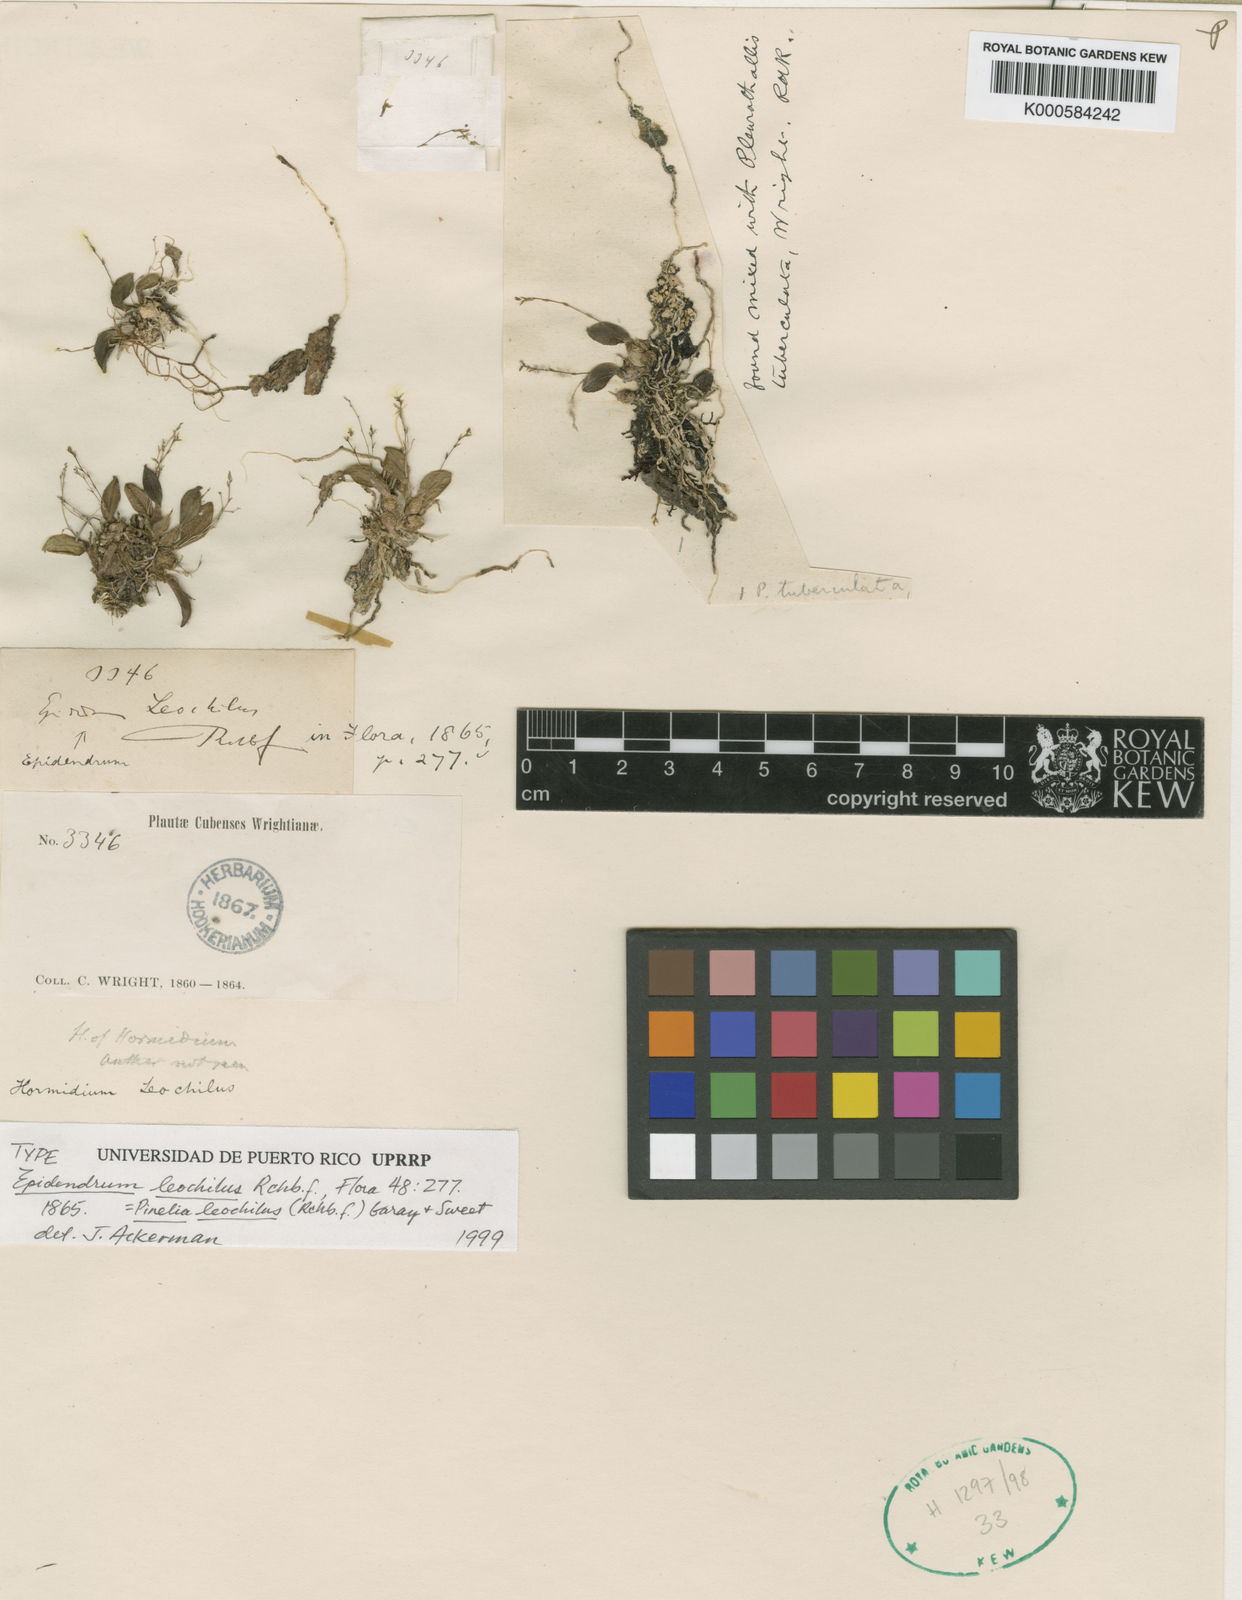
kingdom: Plantae
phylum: Tracheophyta
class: Liliopsida
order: Asparagales
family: Orchidaceae
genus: Homalopetalum
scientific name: Homalopetalum leochilus
